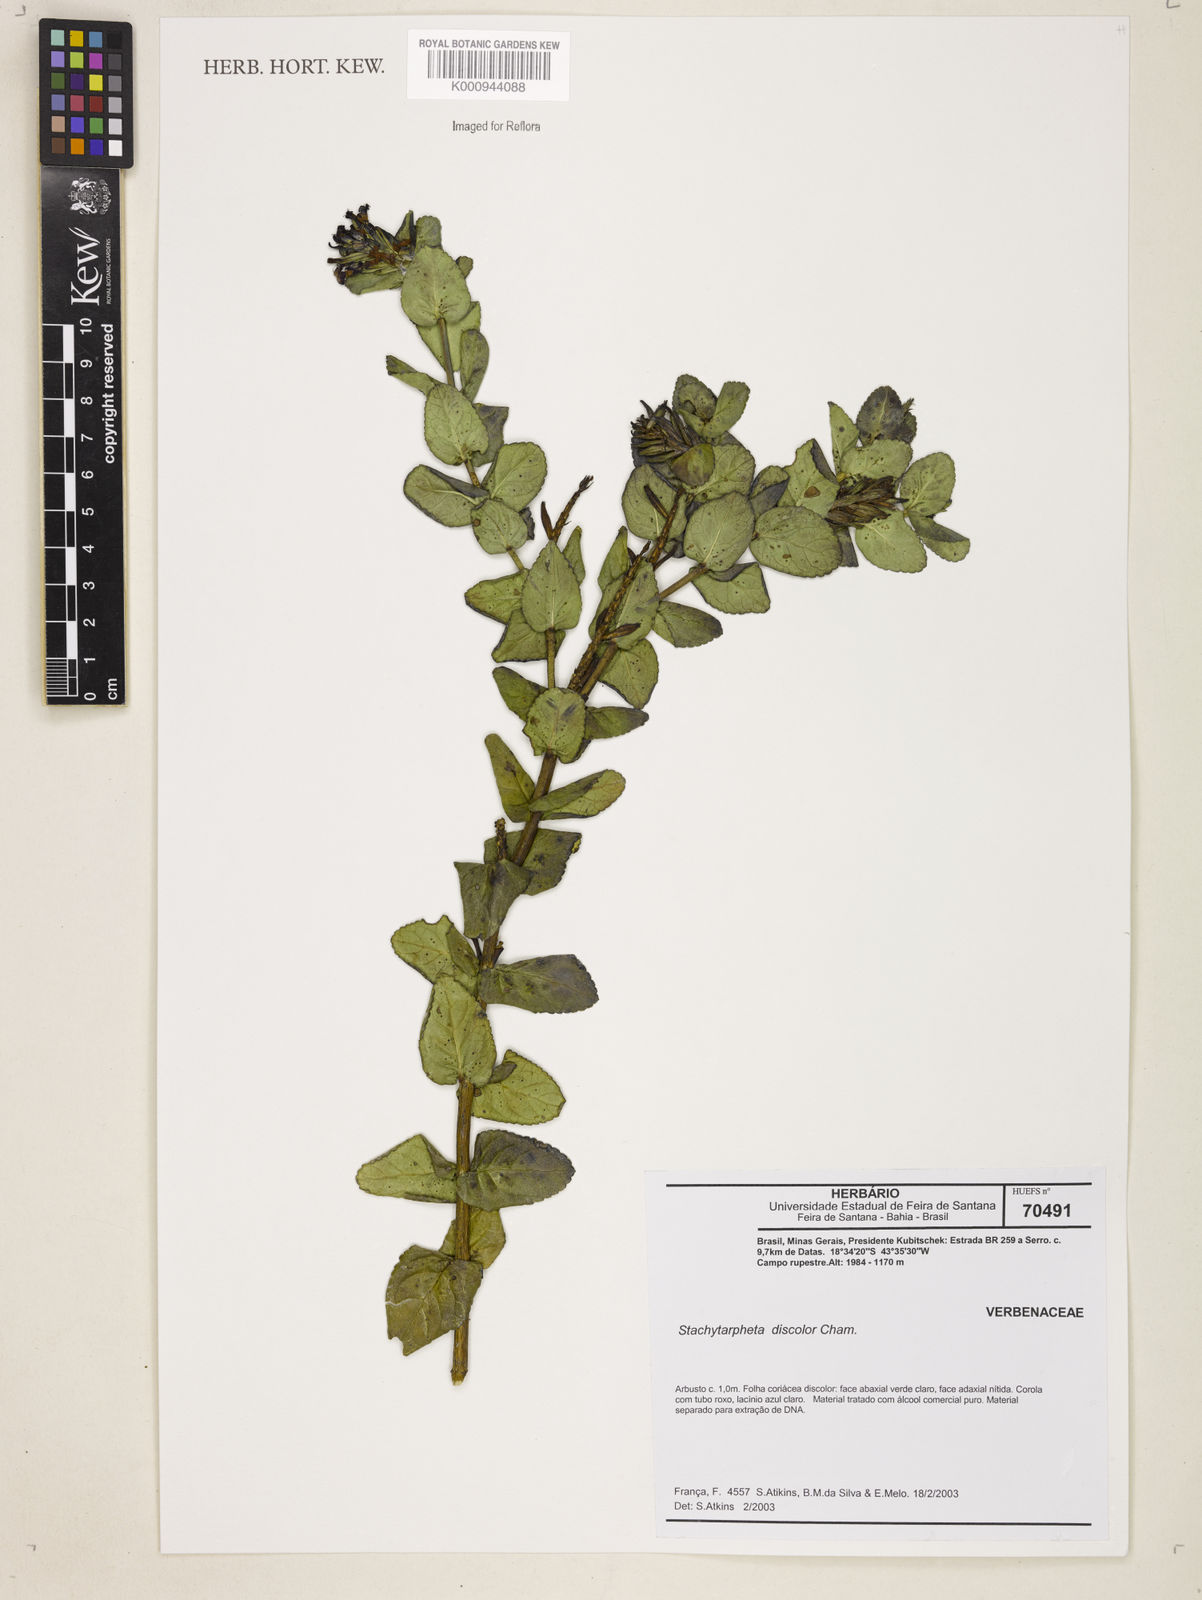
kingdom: Plantae
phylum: Tracheophyta
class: Magnoliopsida
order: Lamiales
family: Verbenaceae
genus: Stachytarpheta
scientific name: Stachytarpheta discolor
